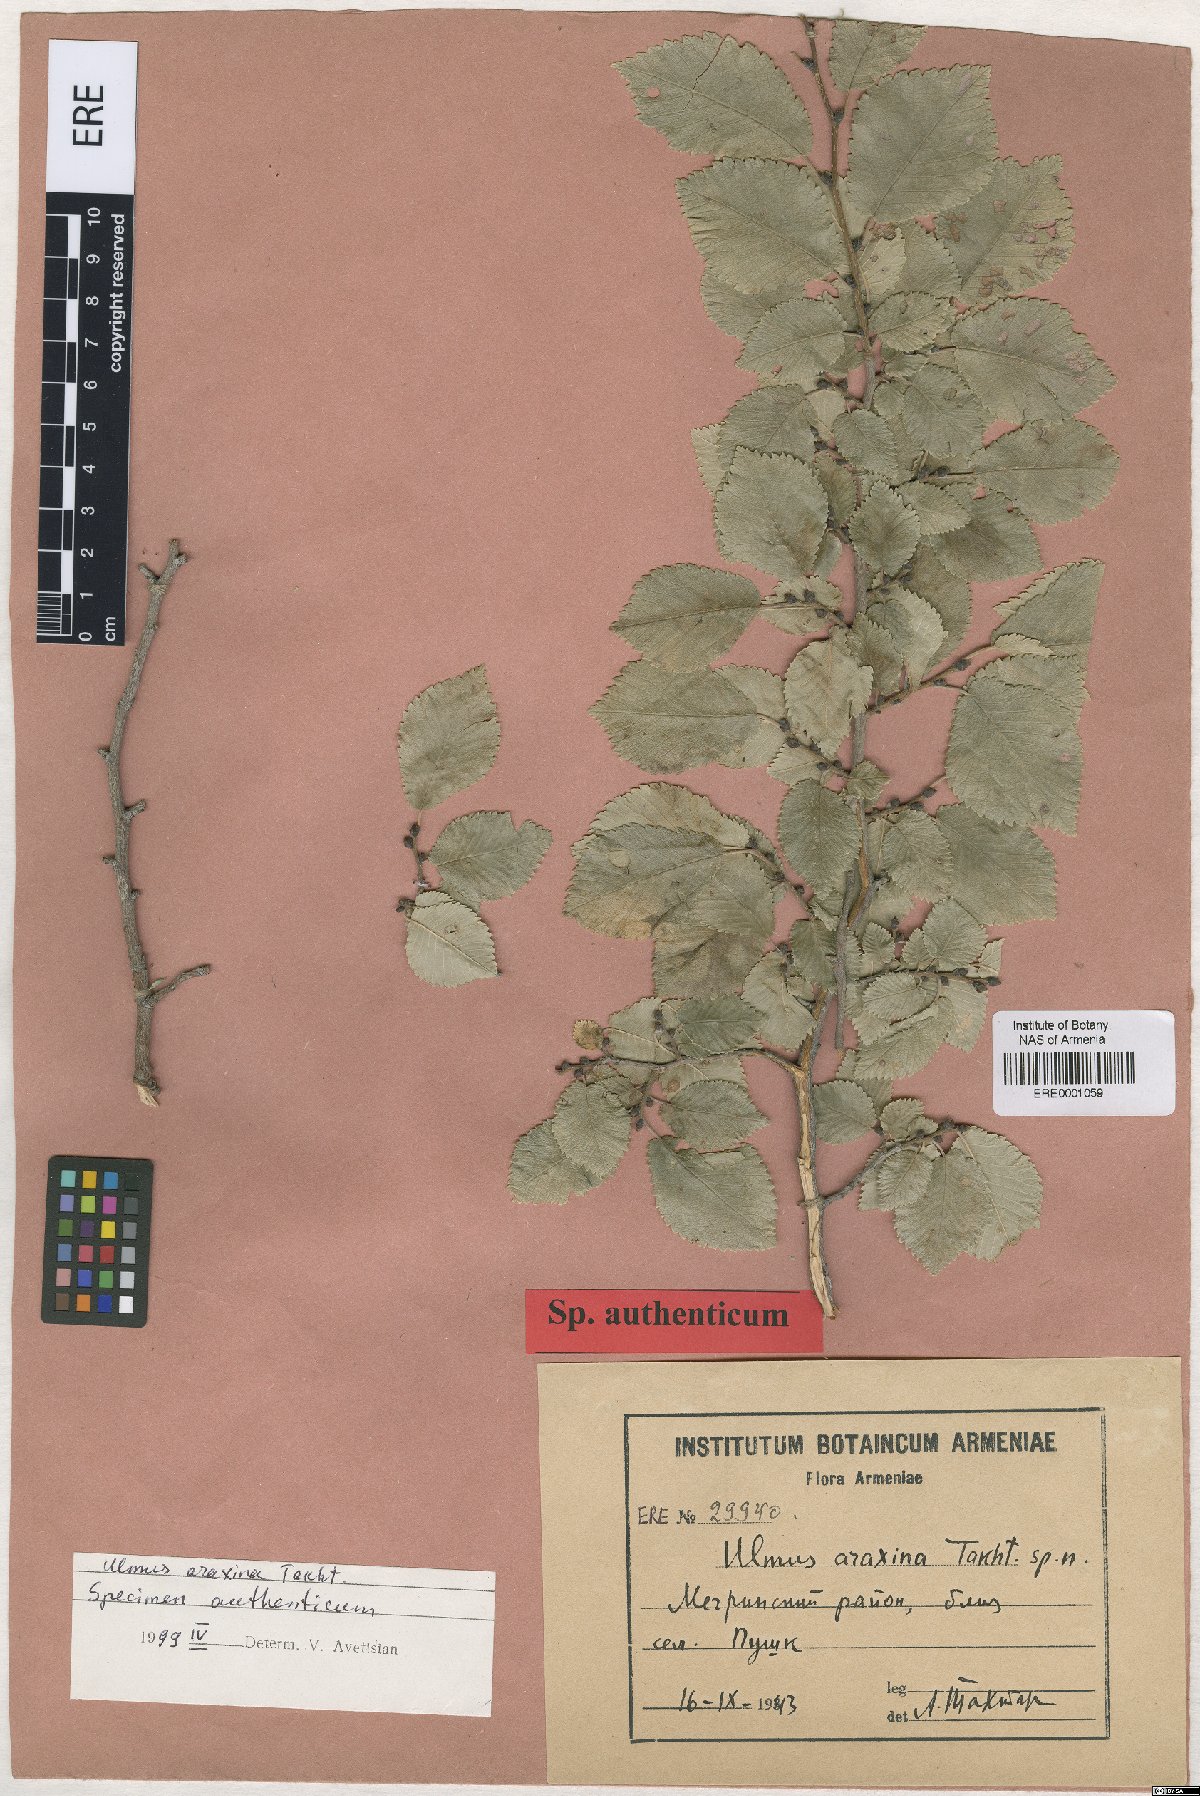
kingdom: Plantae
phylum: Tracheophyta
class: Magnoliopsida
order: Rosales
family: Ulmaceae
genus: Ulmus
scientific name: Ulmus minor
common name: Small-leaved elm
